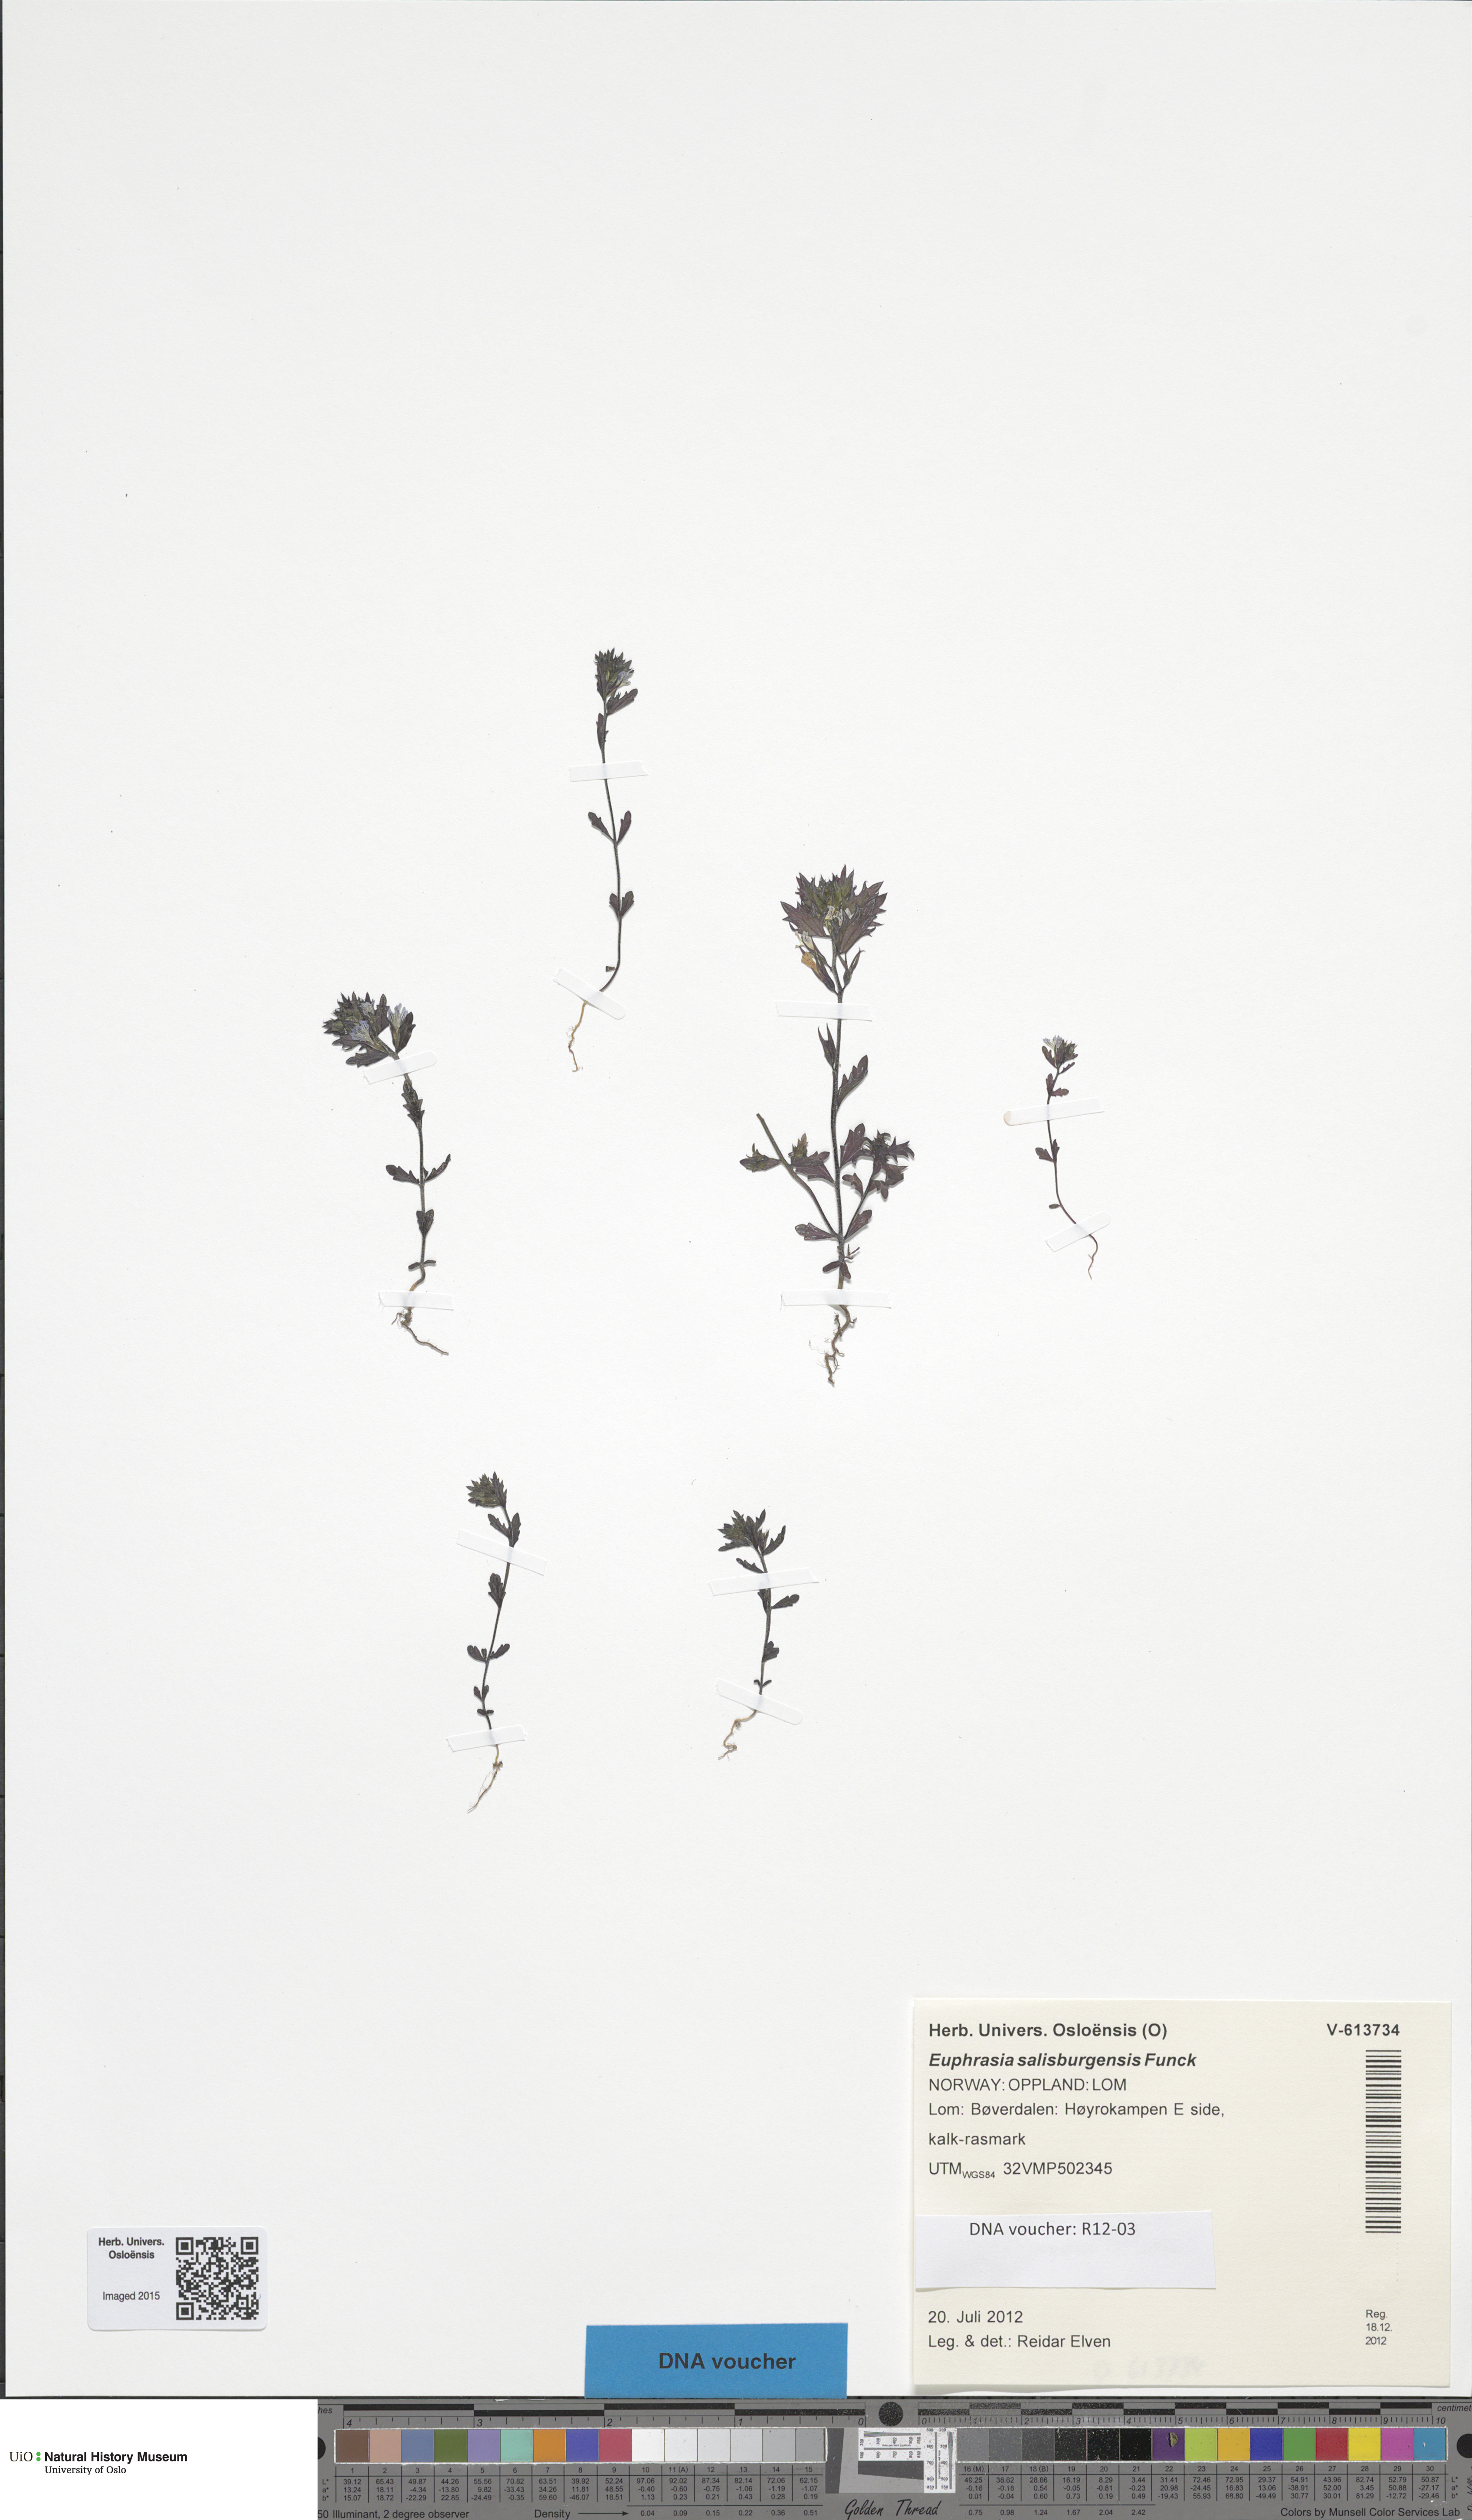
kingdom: Plantae
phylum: Tracheophyta
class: Magnoliopsida
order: Lamiales
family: Orobanchaceae
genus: Euphrasia
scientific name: Euphrasia salisburgensis
